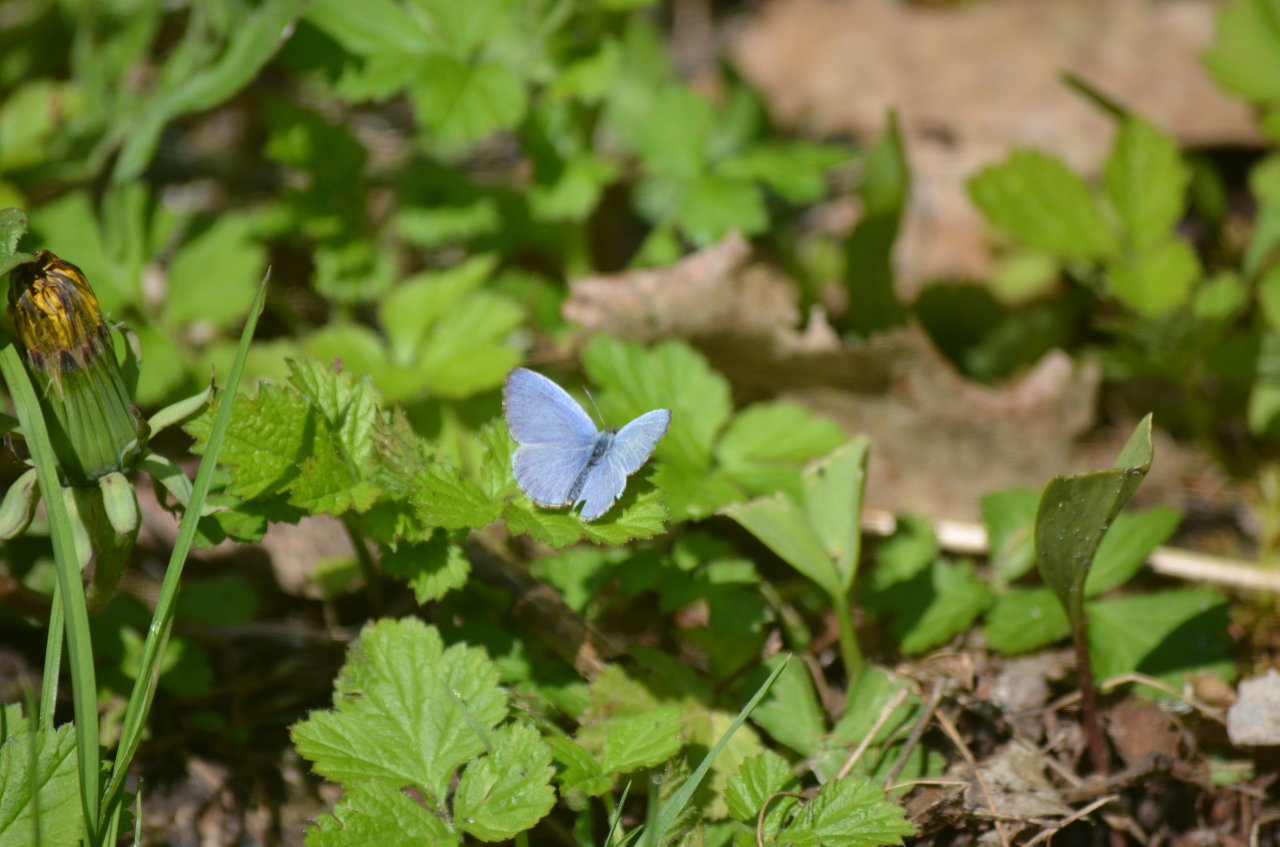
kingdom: Animalia
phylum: Arthropoda
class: Insecta
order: Lepidoptera
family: Lycaenidae
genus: Celastrina
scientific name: Celastrina
